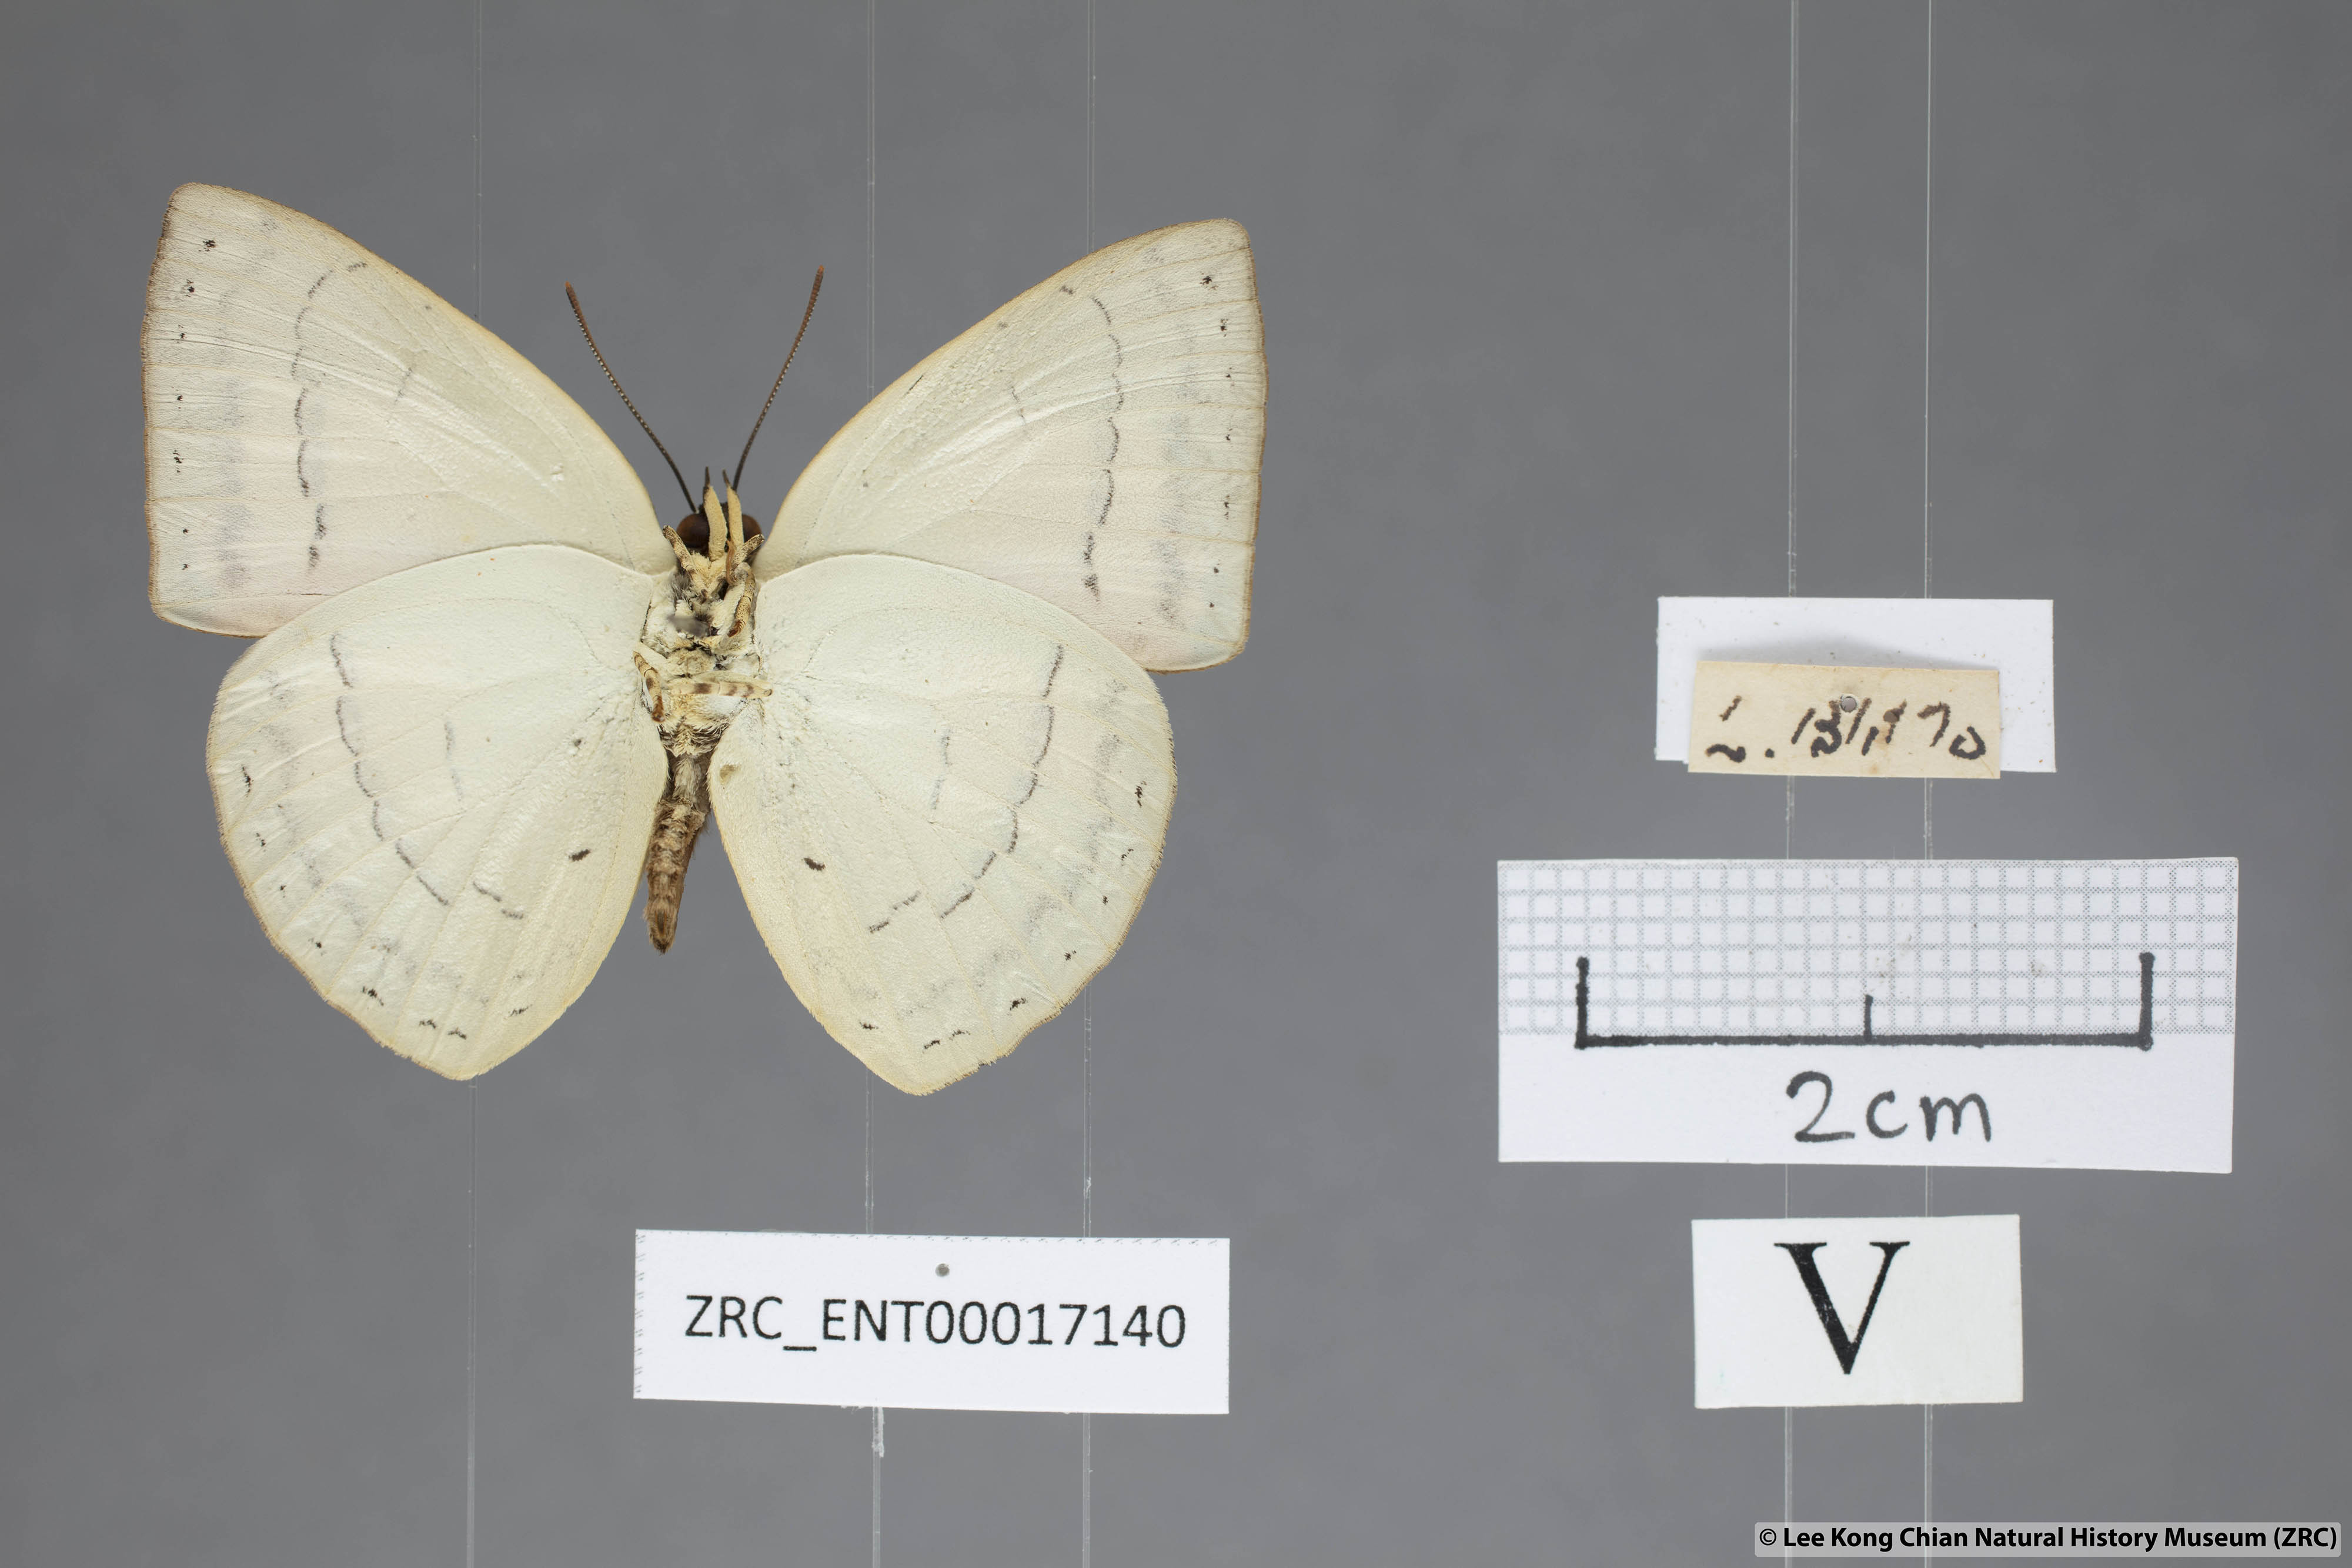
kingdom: Animalia
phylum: Arthropoda
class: Insecta
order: Lepidoptera
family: Lycaenidae
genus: Curetis
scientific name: Curetis insularis
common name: Narrow-banded sunbeam
